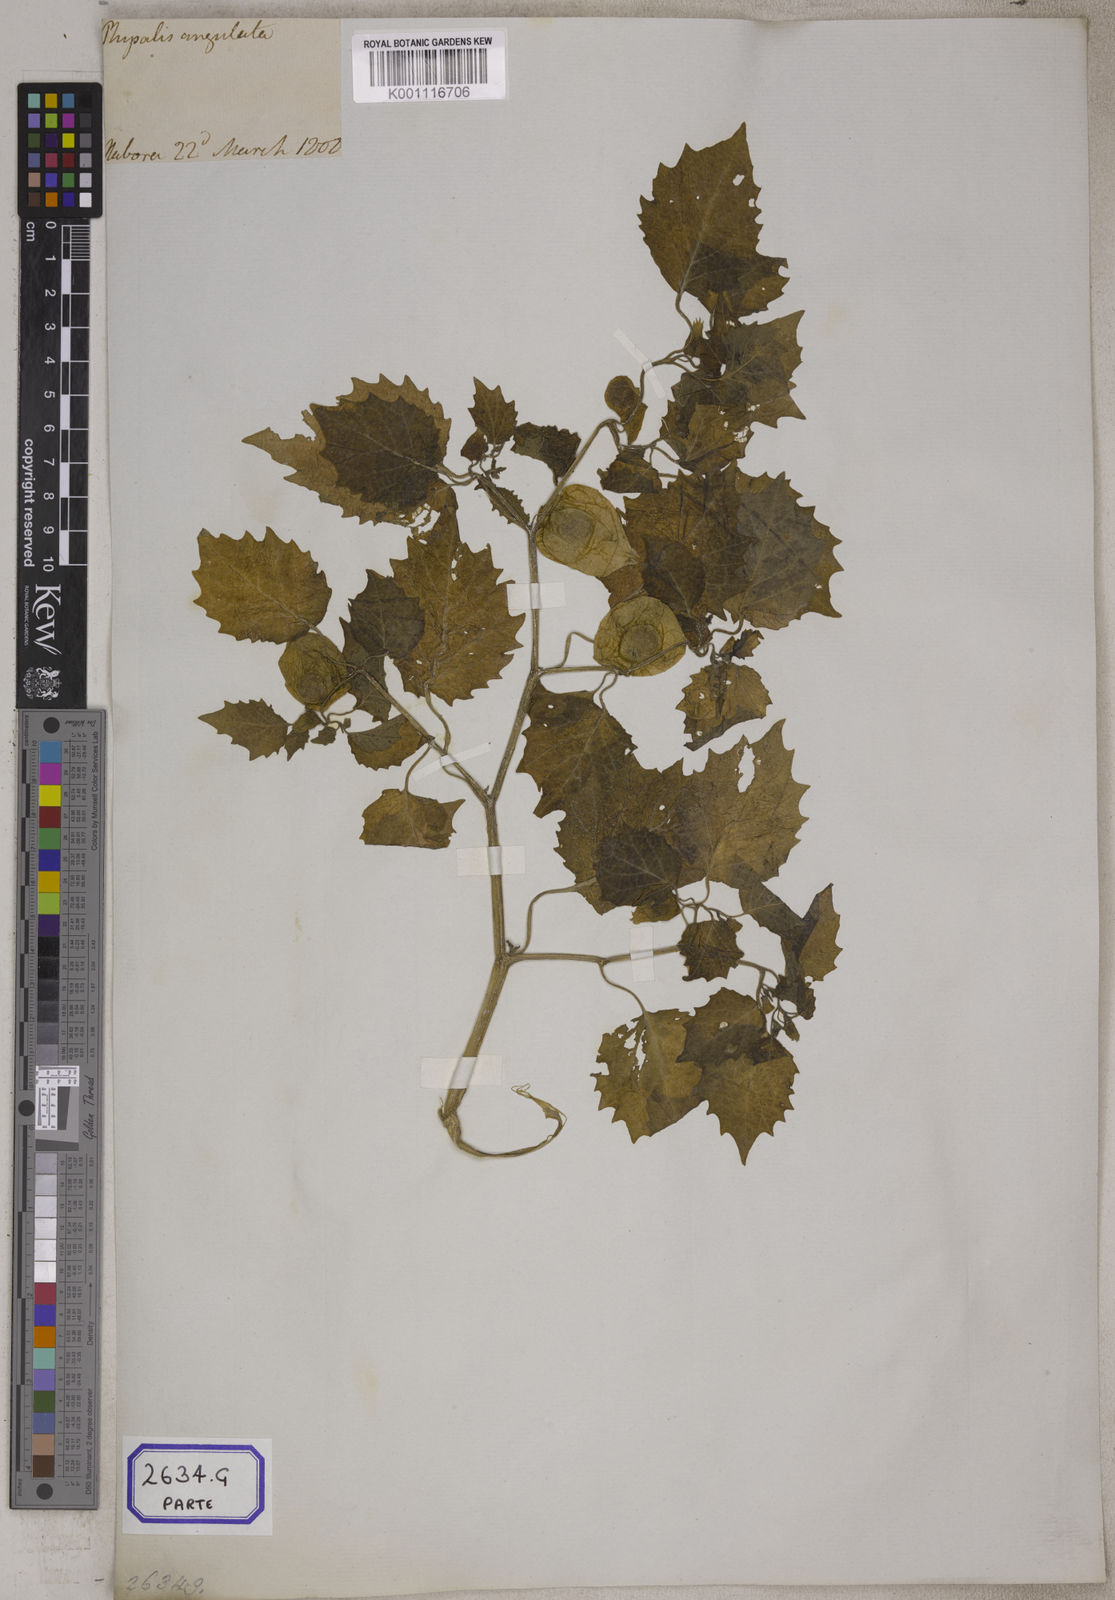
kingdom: Plantae
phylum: Tracheophyta
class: Magnoliopsida
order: Solanales
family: Solanaceae
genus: Physalis
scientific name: Physalis peruviana
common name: Cape-gooseberry
